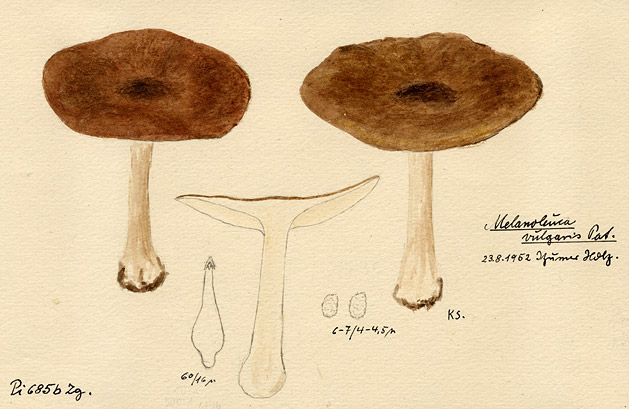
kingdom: Fungi
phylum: Basidiomycota
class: Agaricomycetes
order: Agaricales
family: Tricholomataceae
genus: Melanoleuca
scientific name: Melanoleuca melaleuca
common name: Bald cavalier
